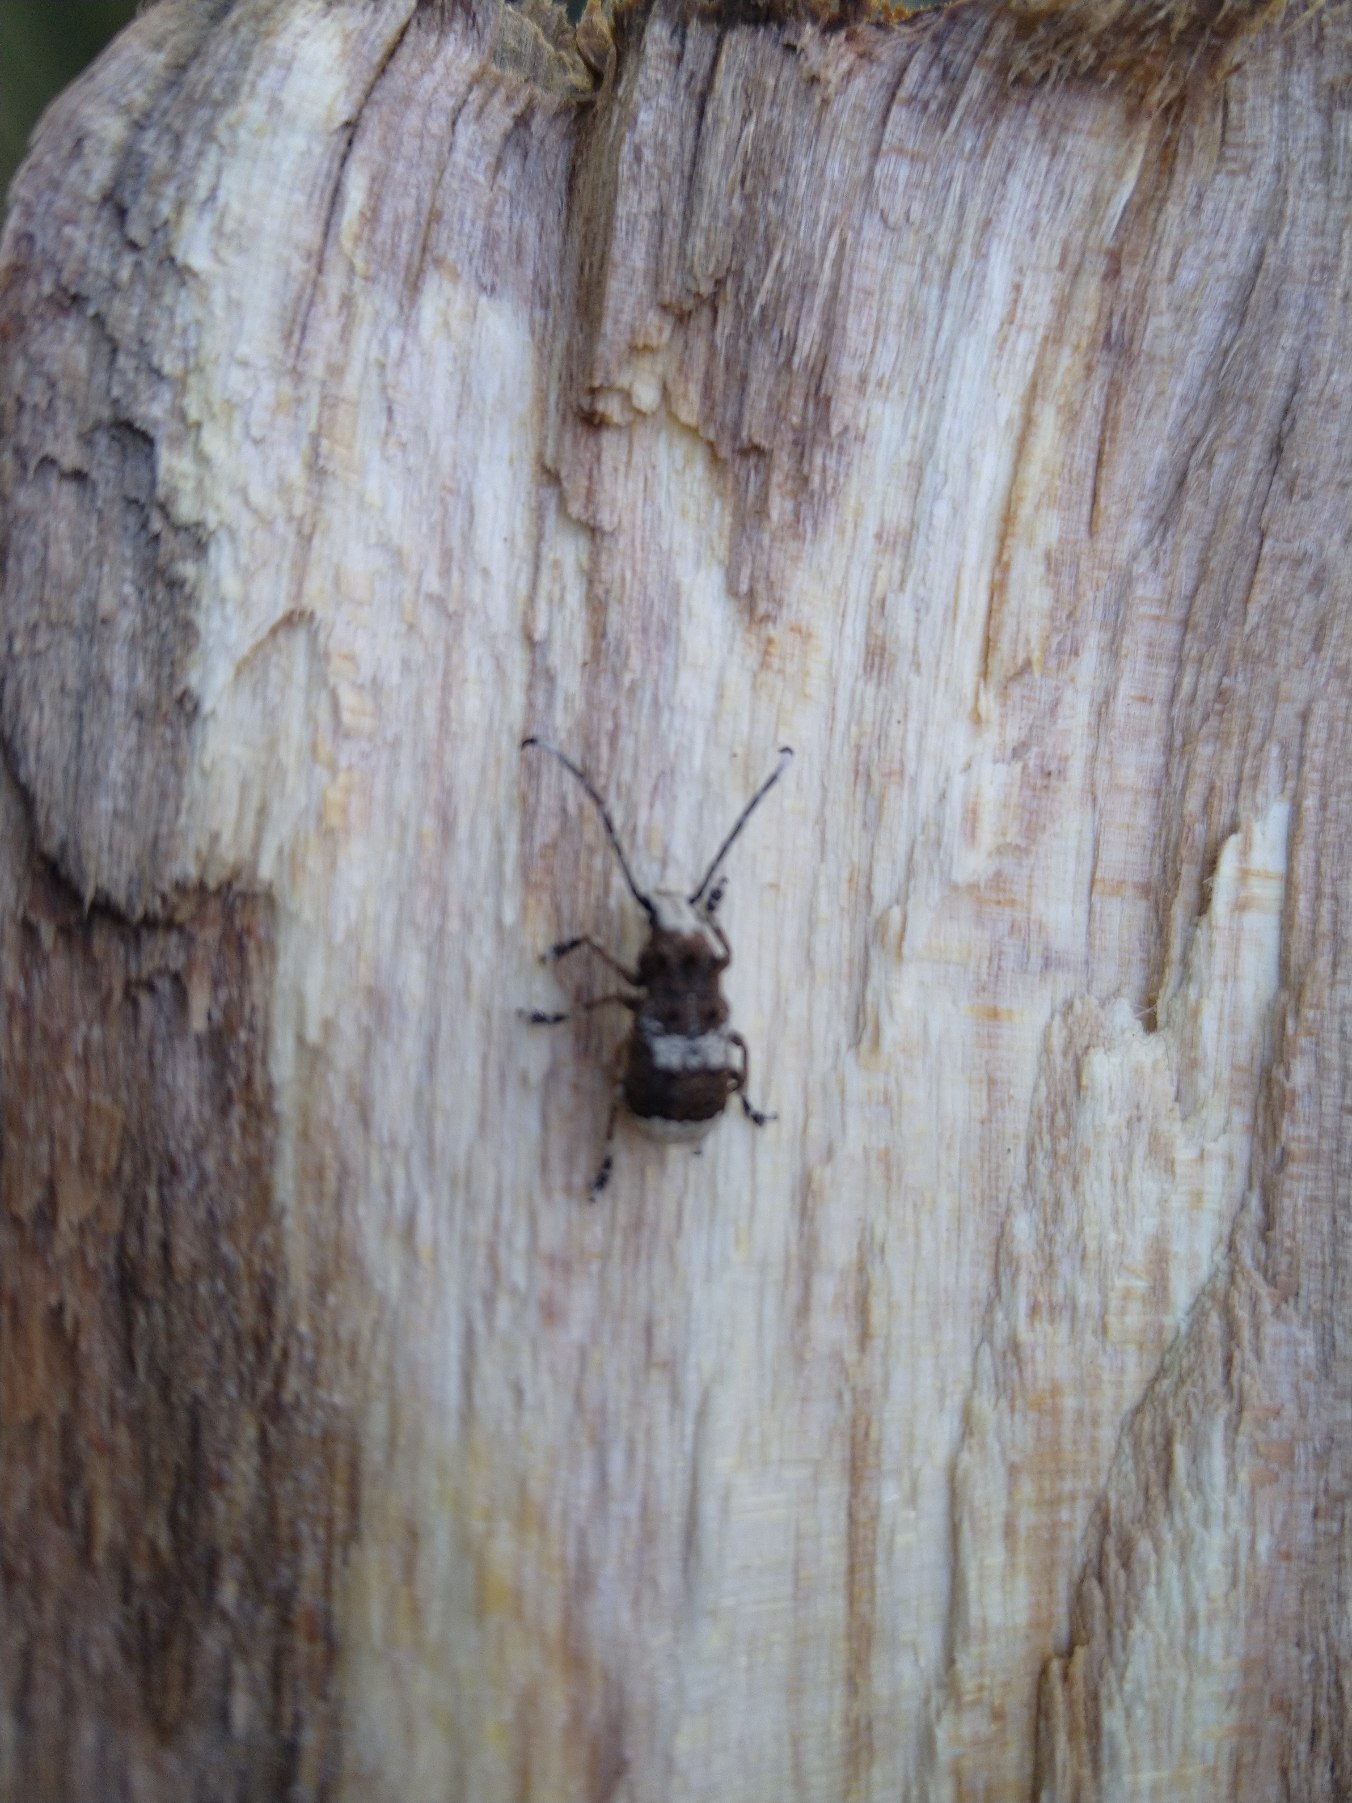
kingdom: Animalia
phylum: Arthropoda
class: Insecta
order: Coleoptera
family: Anthribidae
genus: Platystomos
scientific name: Platystomos albinus
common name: Hvidhovedet bredsnudebille
